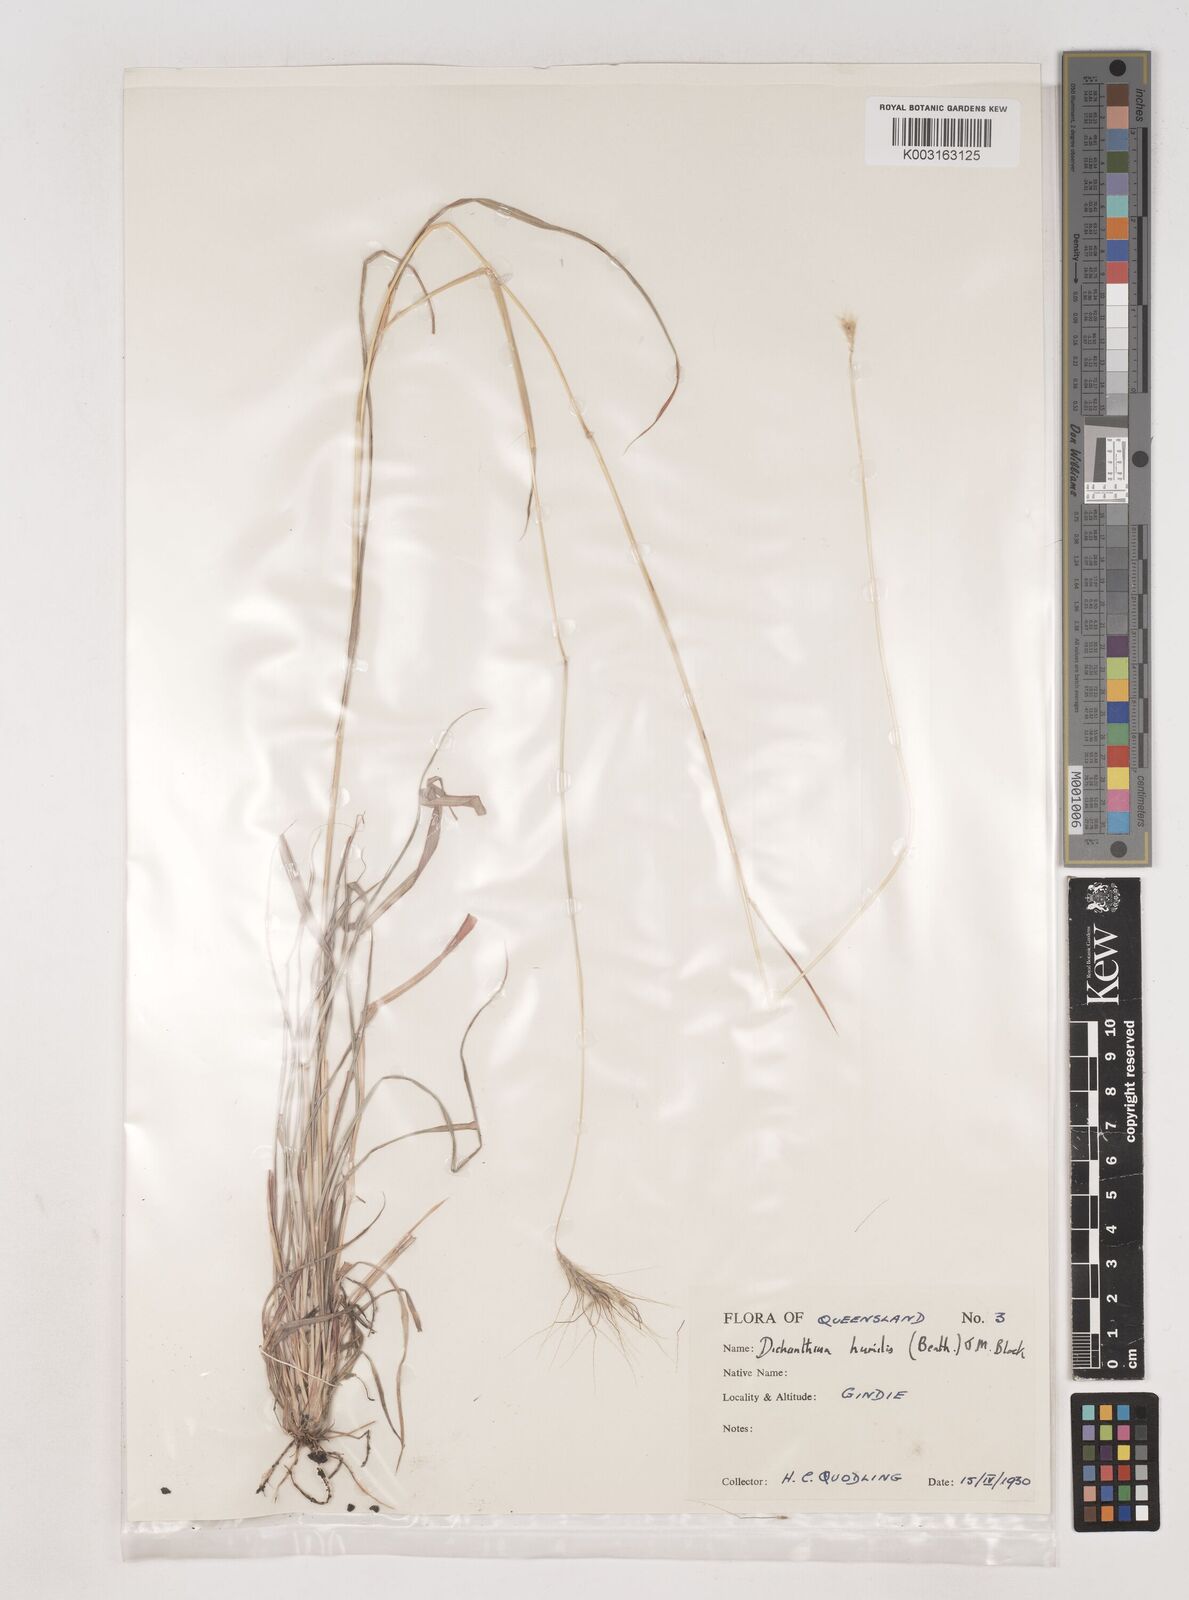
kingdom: Plantae
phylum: Tracheophyta
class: Liliopsida
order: Poales
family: Poaceae
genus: Dichanthium
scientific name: Dichanthium sericeum
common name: Silky bluestem
